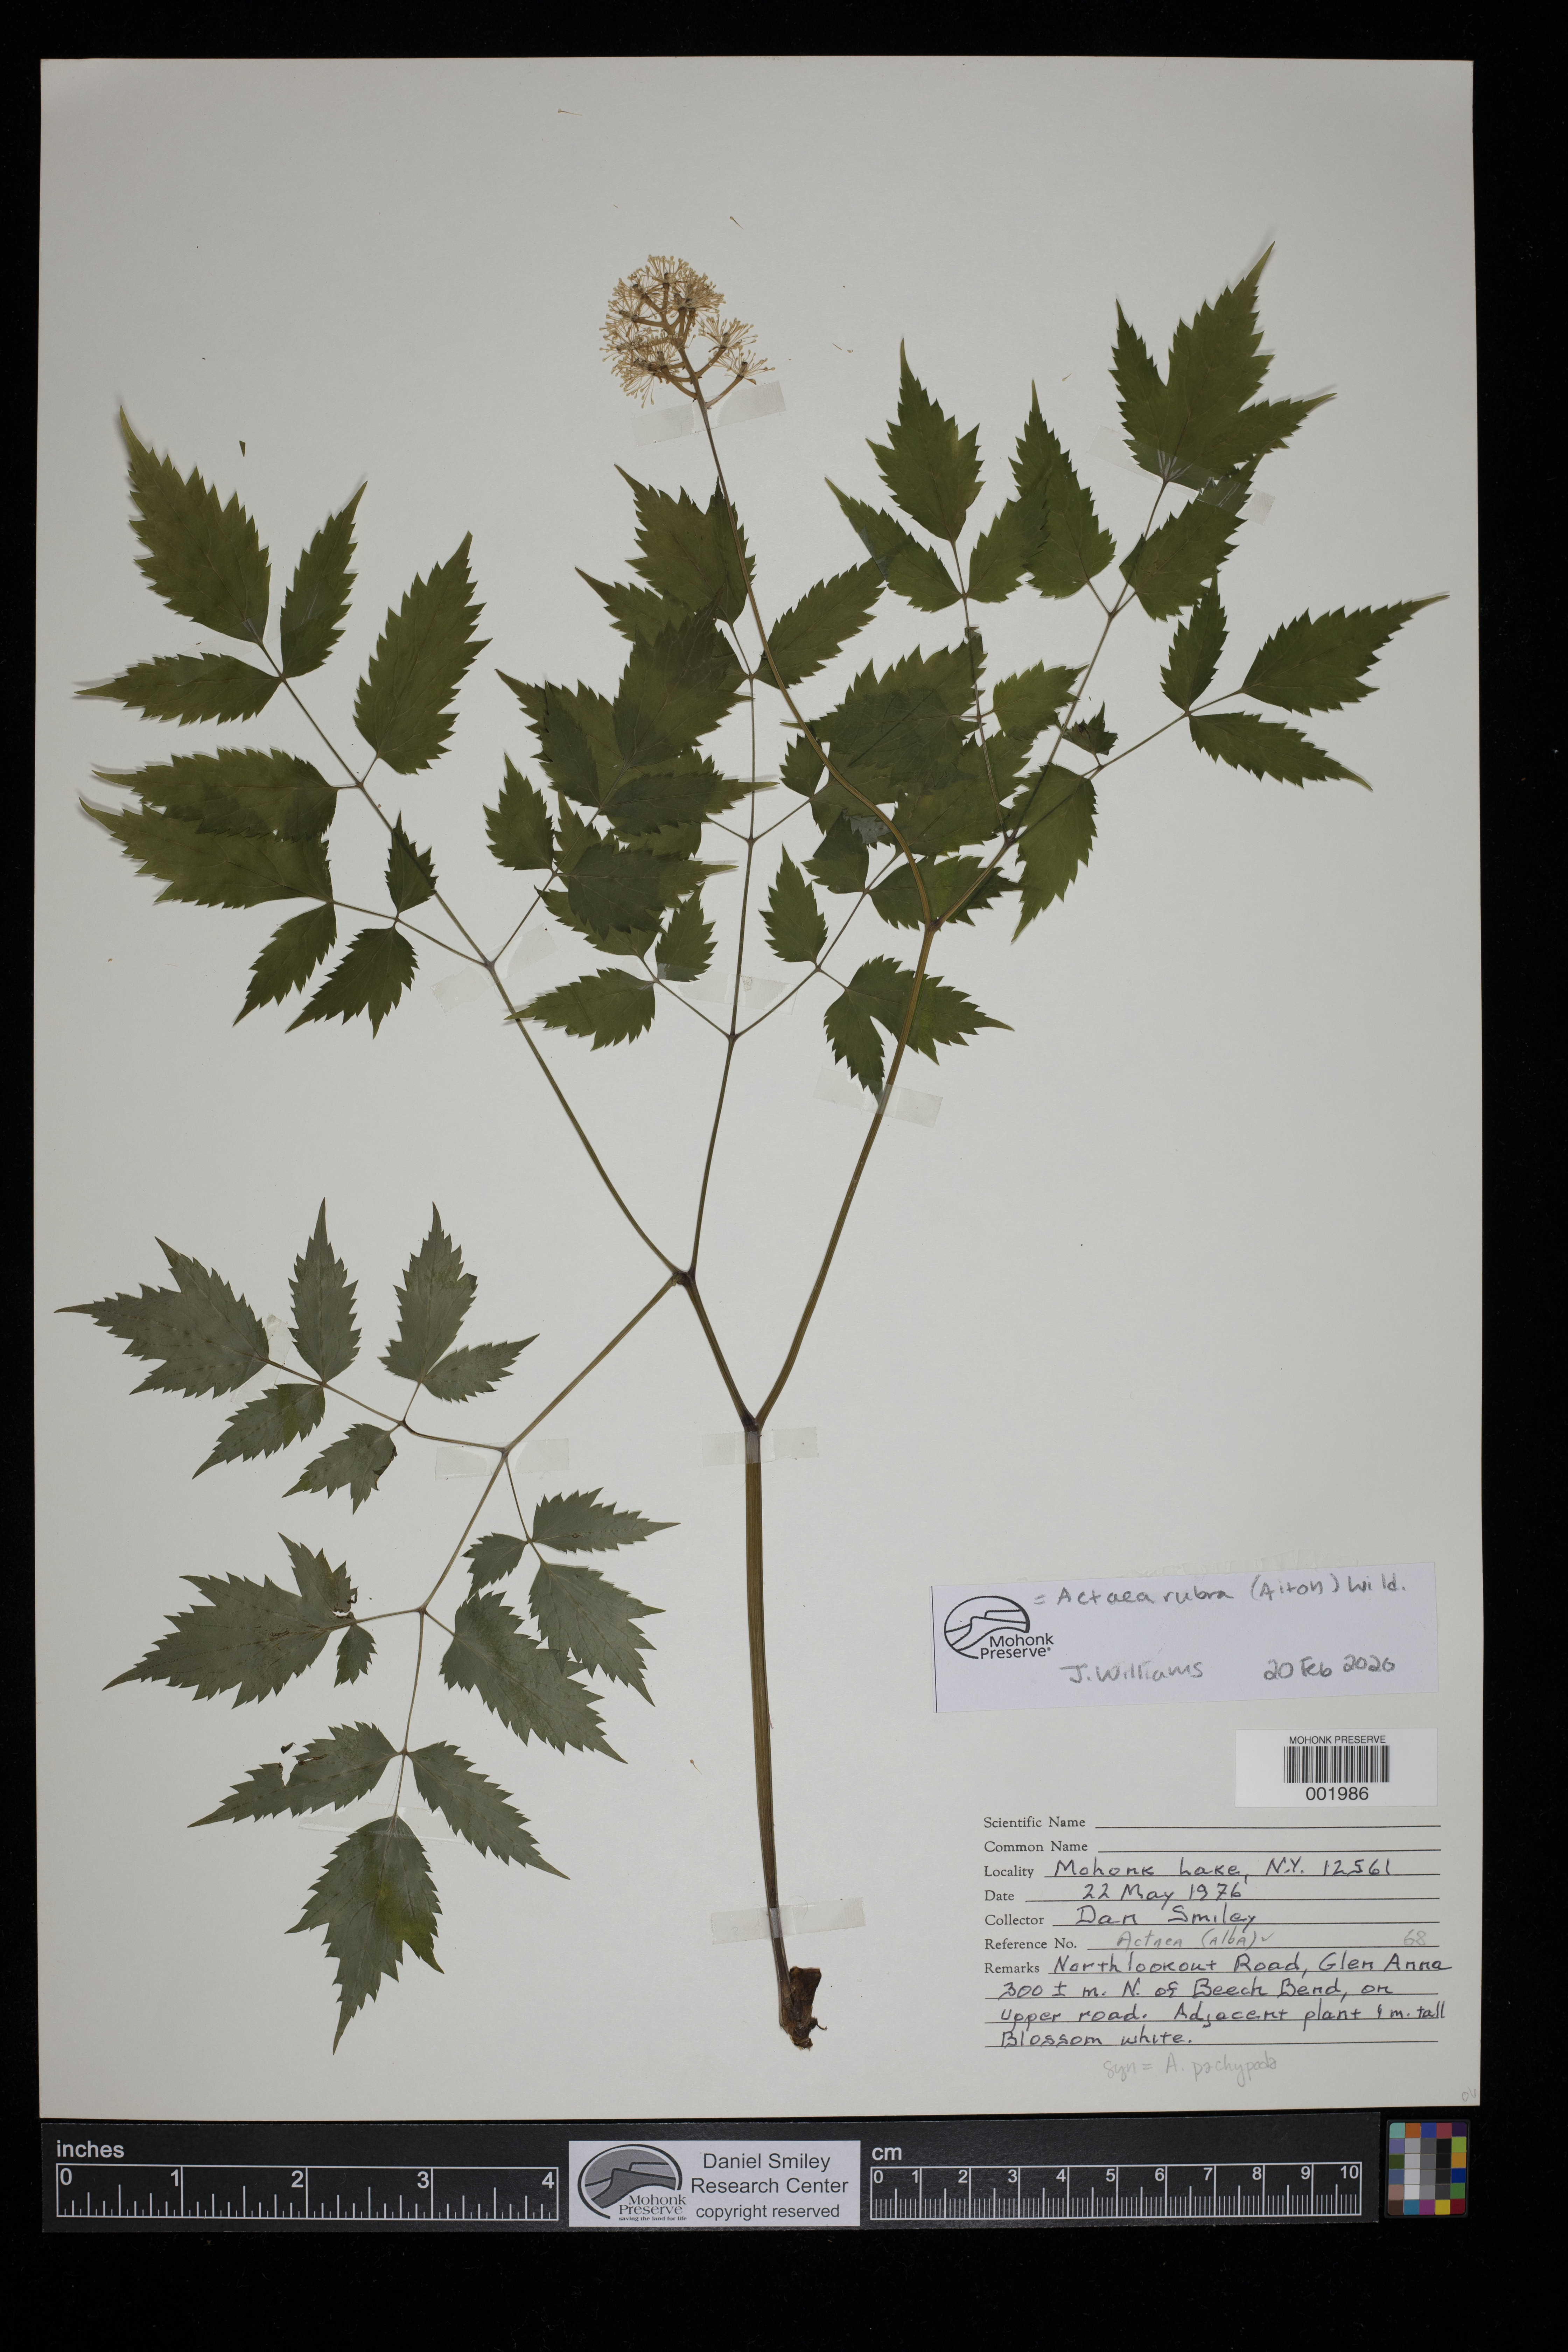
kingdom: Plantae
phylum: Tracheophyta
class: Magnoliopsida
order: Ranunculales
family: Ranunculaceae
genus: Actaea
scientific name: Actaea rubra
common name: Red baneberry
